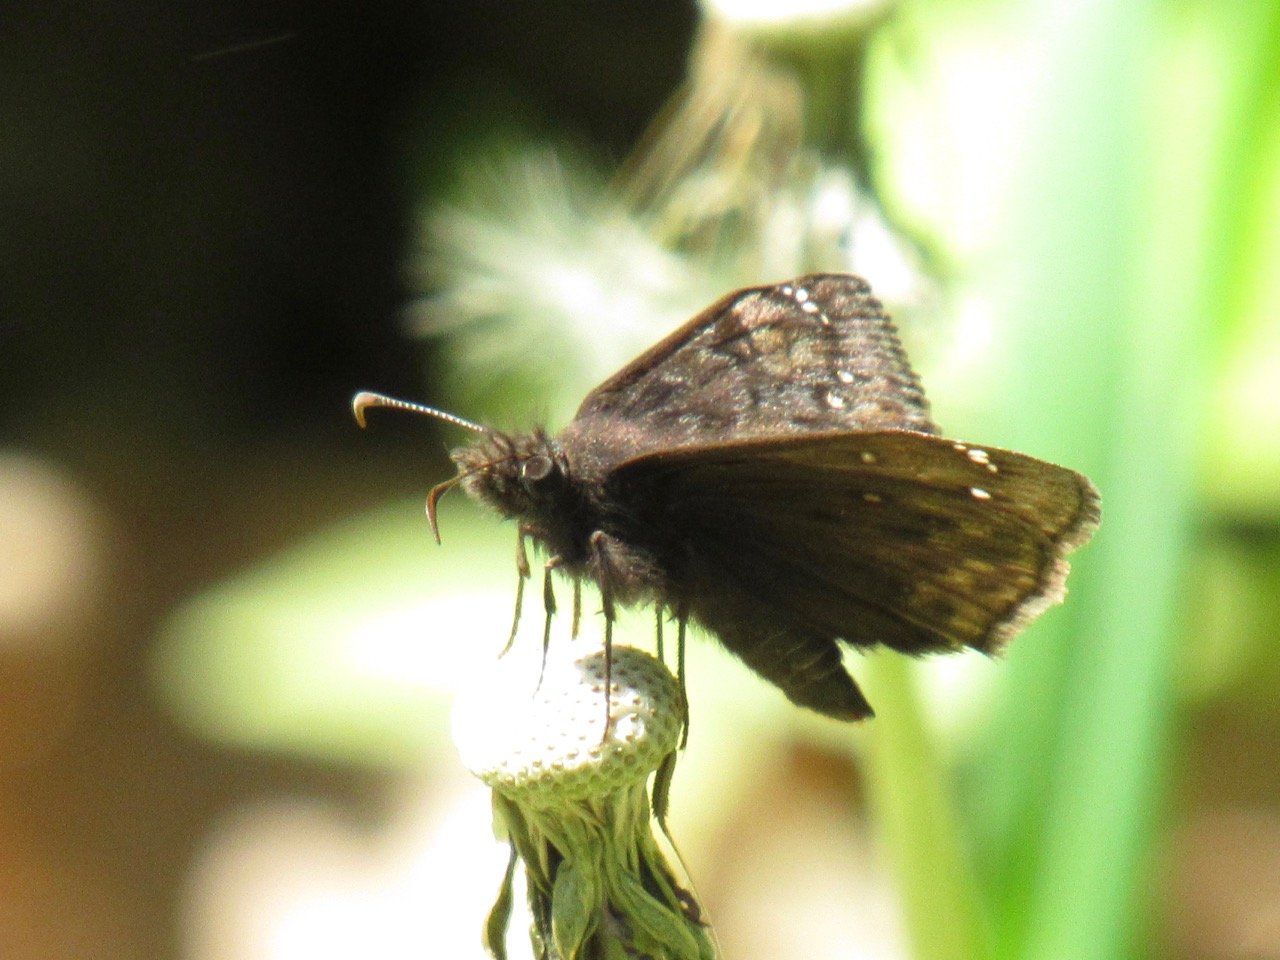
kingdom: Animalia
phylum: Arthropoda
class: Insecta
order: Lepidoptera
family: Hesperiidae
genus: Gesta
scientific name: Gesta
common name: Juvenal's Duskywing
